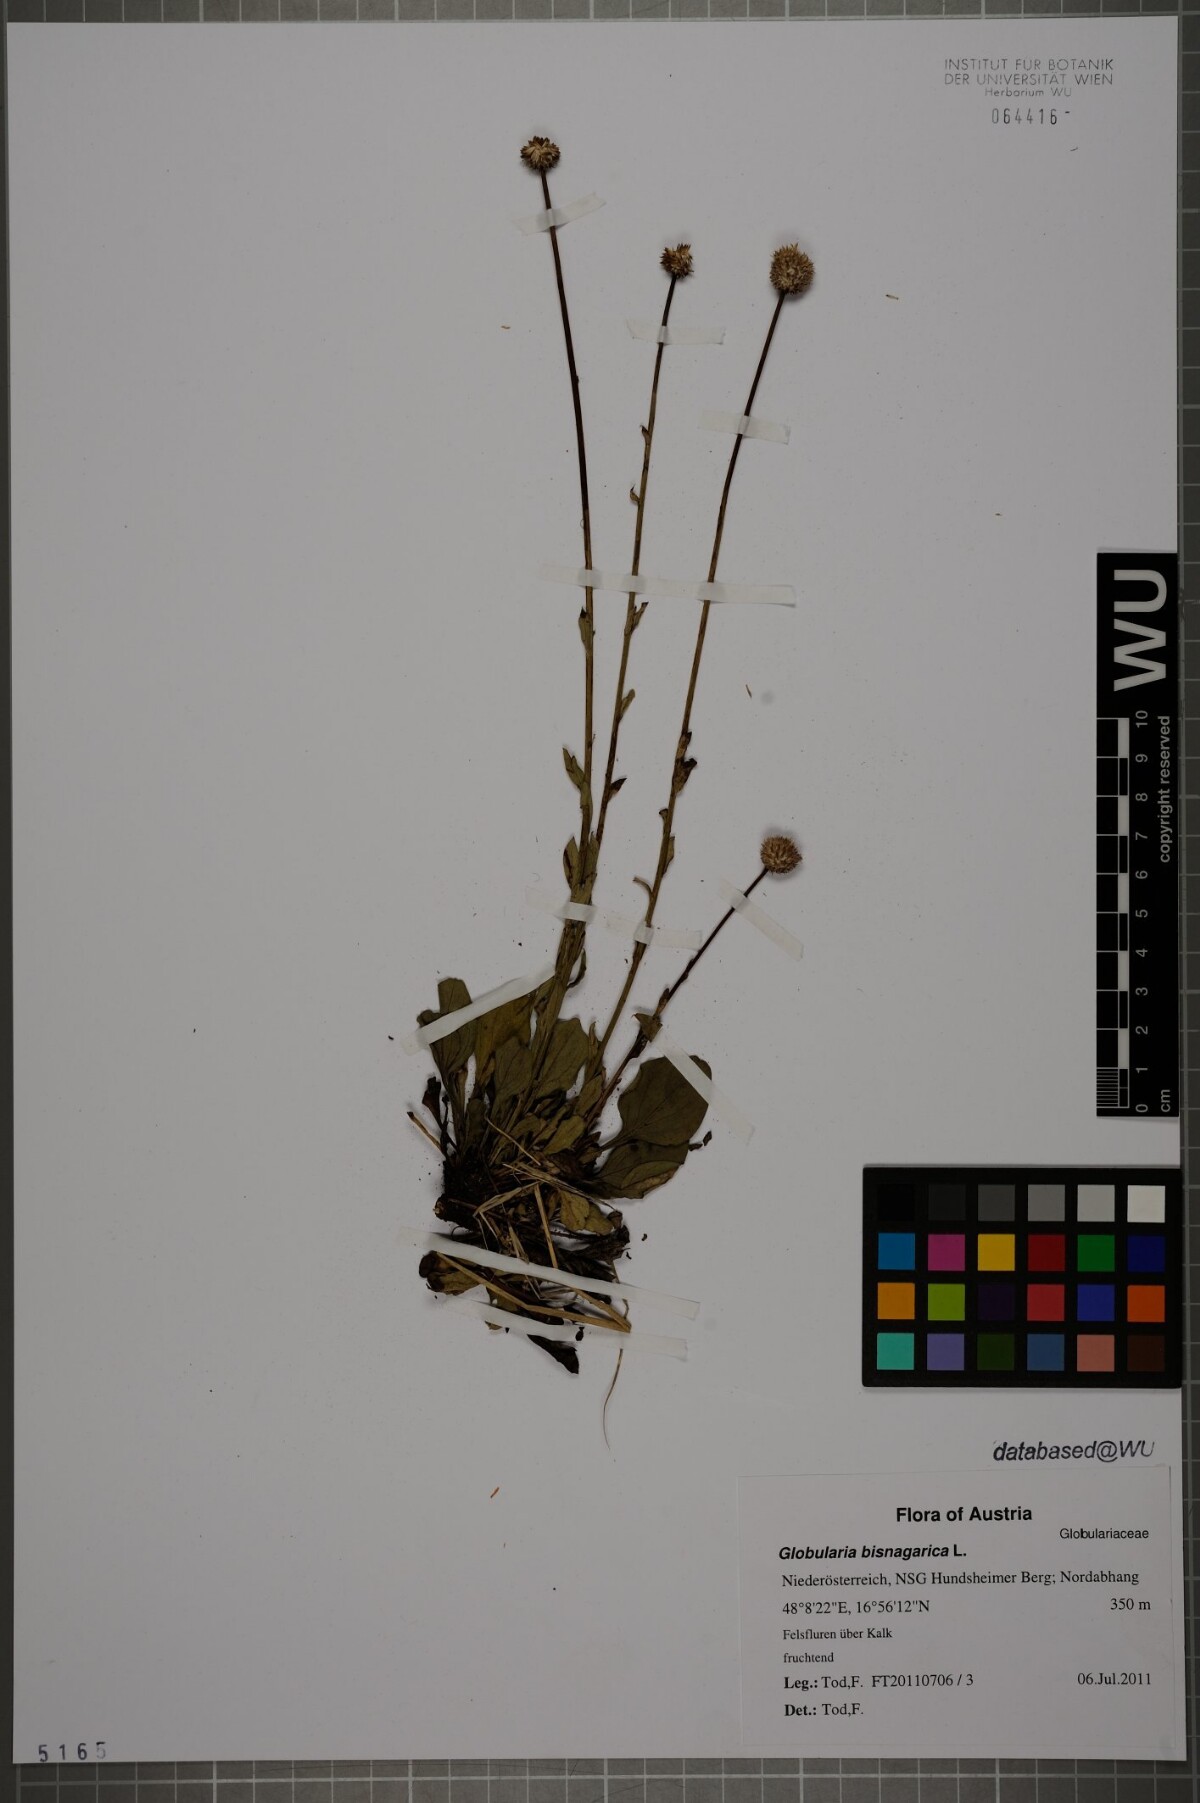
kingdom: Plantae
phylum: Tracheophyta
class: Magnoliopsida
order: Lamiales
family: Plantaginaceae
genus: Globularia
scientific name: Globularia bisnagarica
